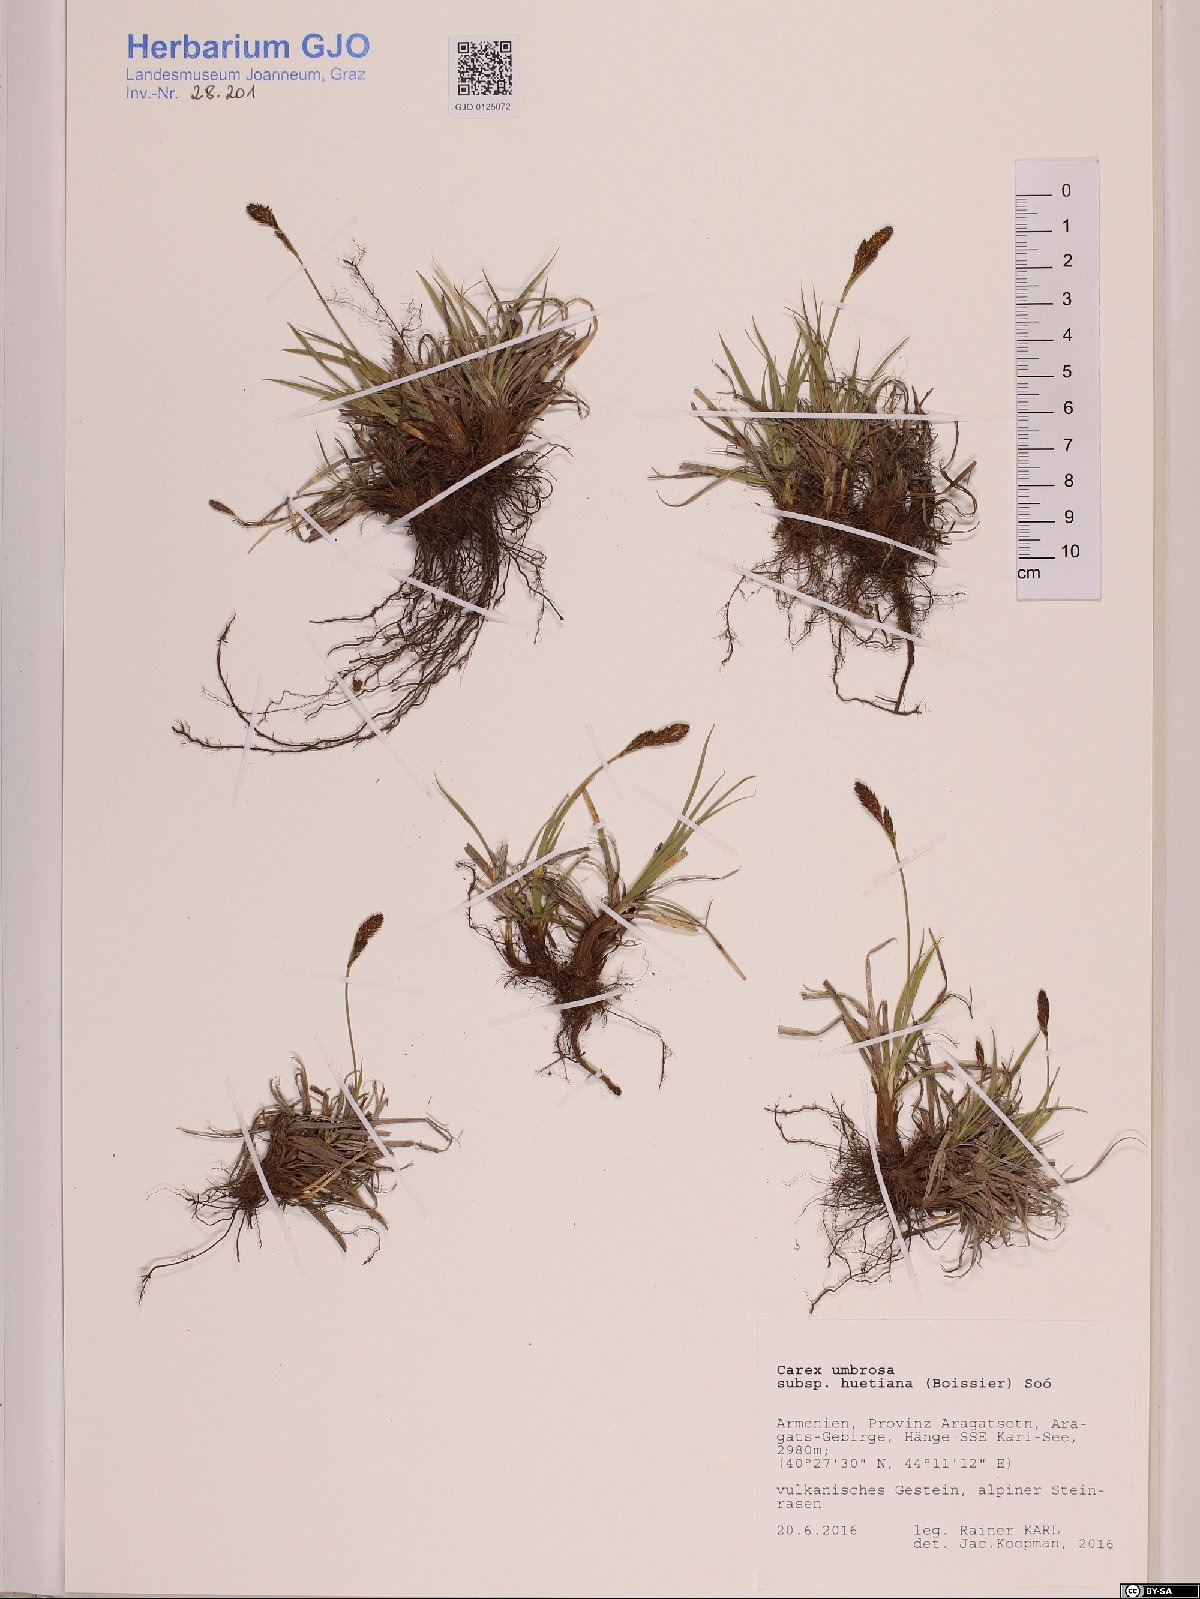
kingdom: Plantae
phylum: Tracheophyta
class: Liliopsida
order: Poales
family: Cyperaceae
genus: Carex
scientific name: Carex umbrosa
